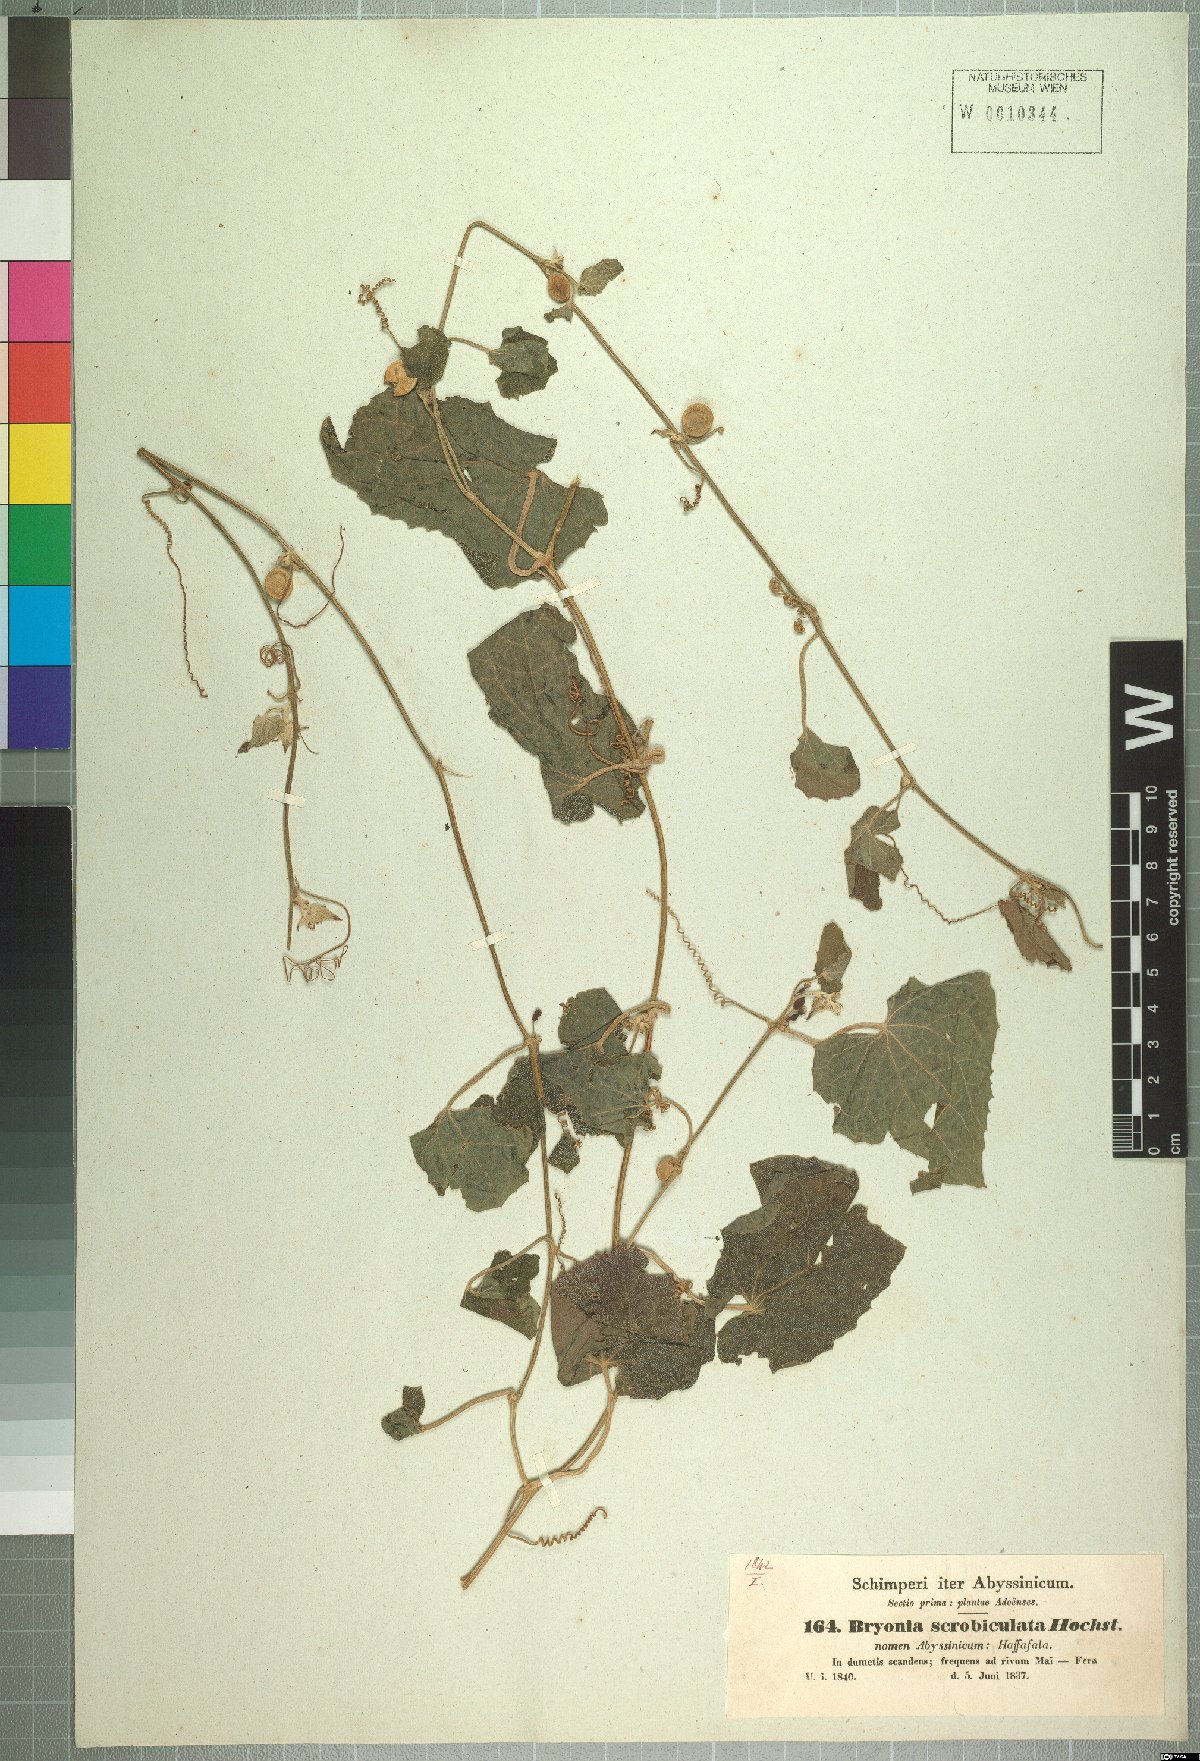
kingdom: Plantae
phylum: Tracheophyta
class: Magnoliopsida
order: Cucurbitales
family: Cucurbitaceae
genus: Zehneria
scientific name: Zehneria scabra
